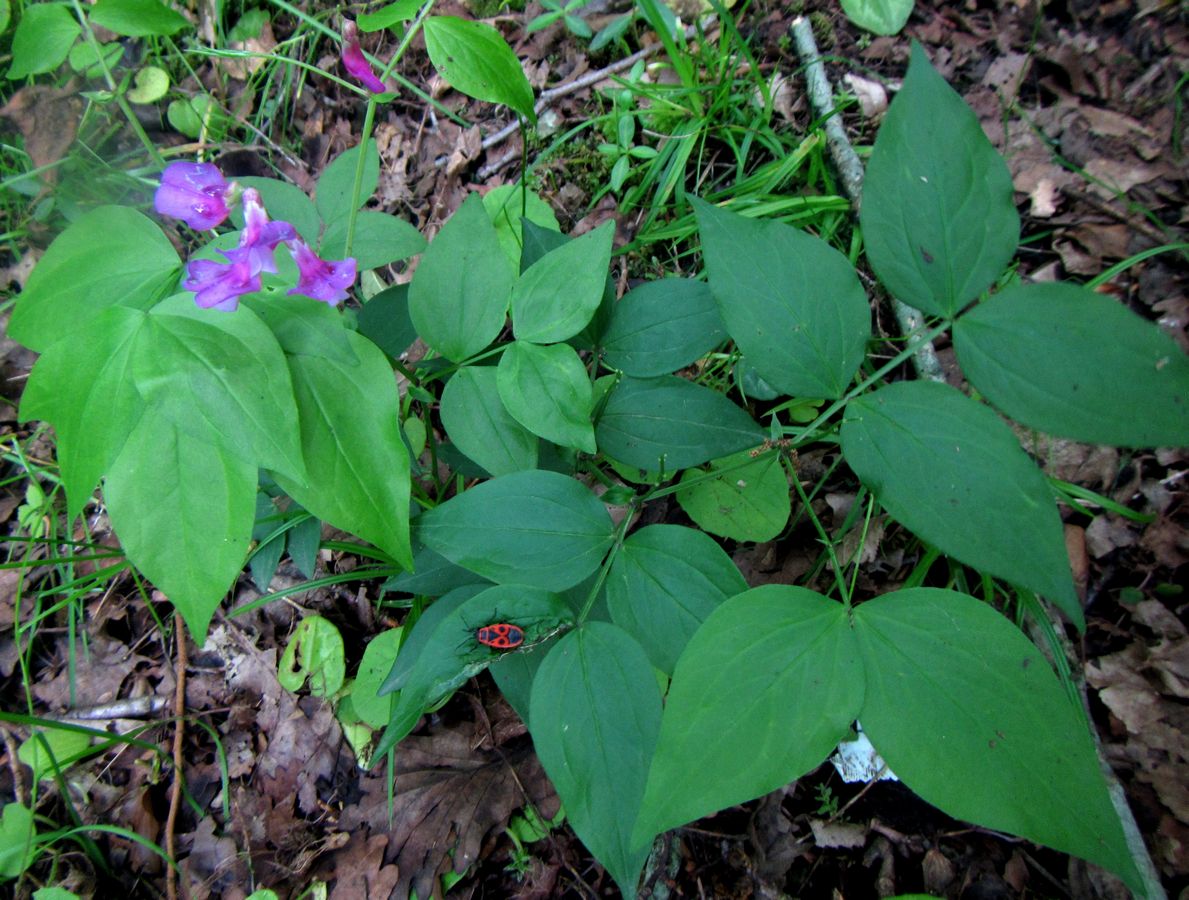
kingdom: Plantae
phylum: Tracheophyta
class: Magnoliopsida
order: Fabales
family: Fabaceae
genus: Lathyrus
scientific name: Lathyrus vernus
